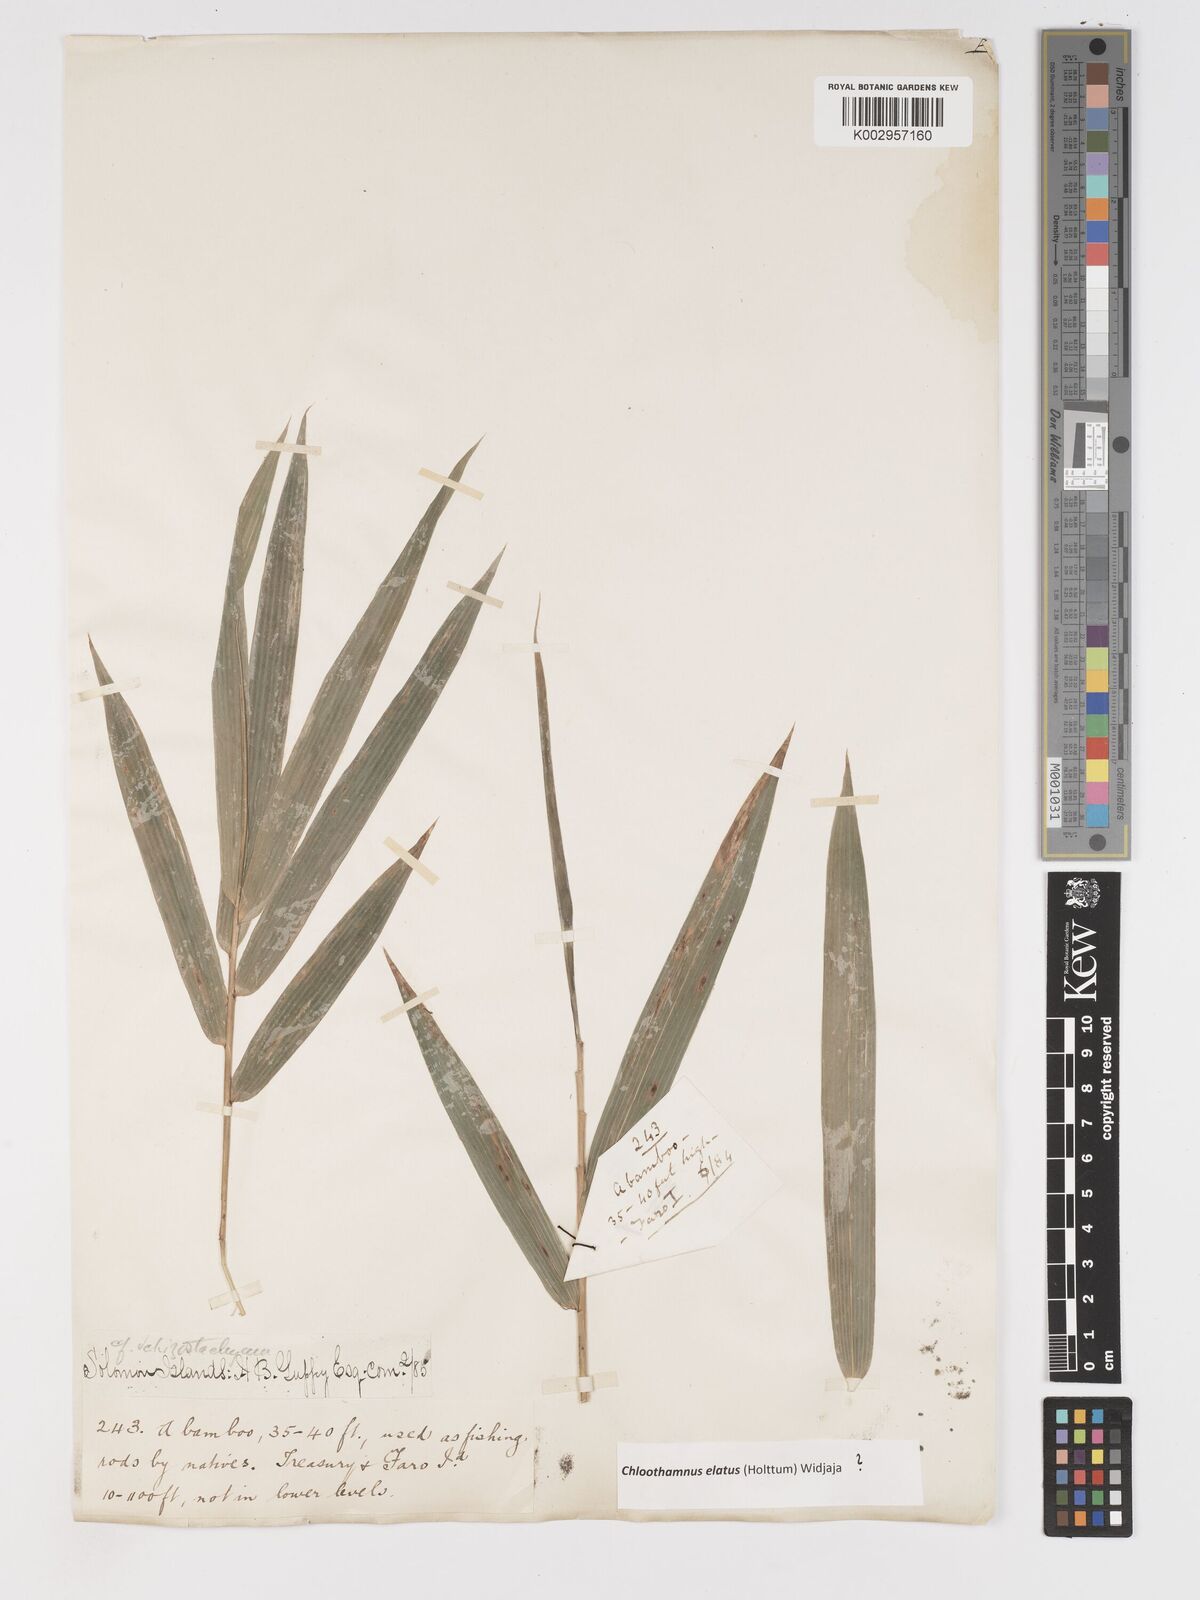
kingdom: Plantae
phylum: Tracheophyta
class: Liliopsida
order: Poales
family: Poaceae
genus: Chloothamnus
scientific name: Chloothamnus elatus
